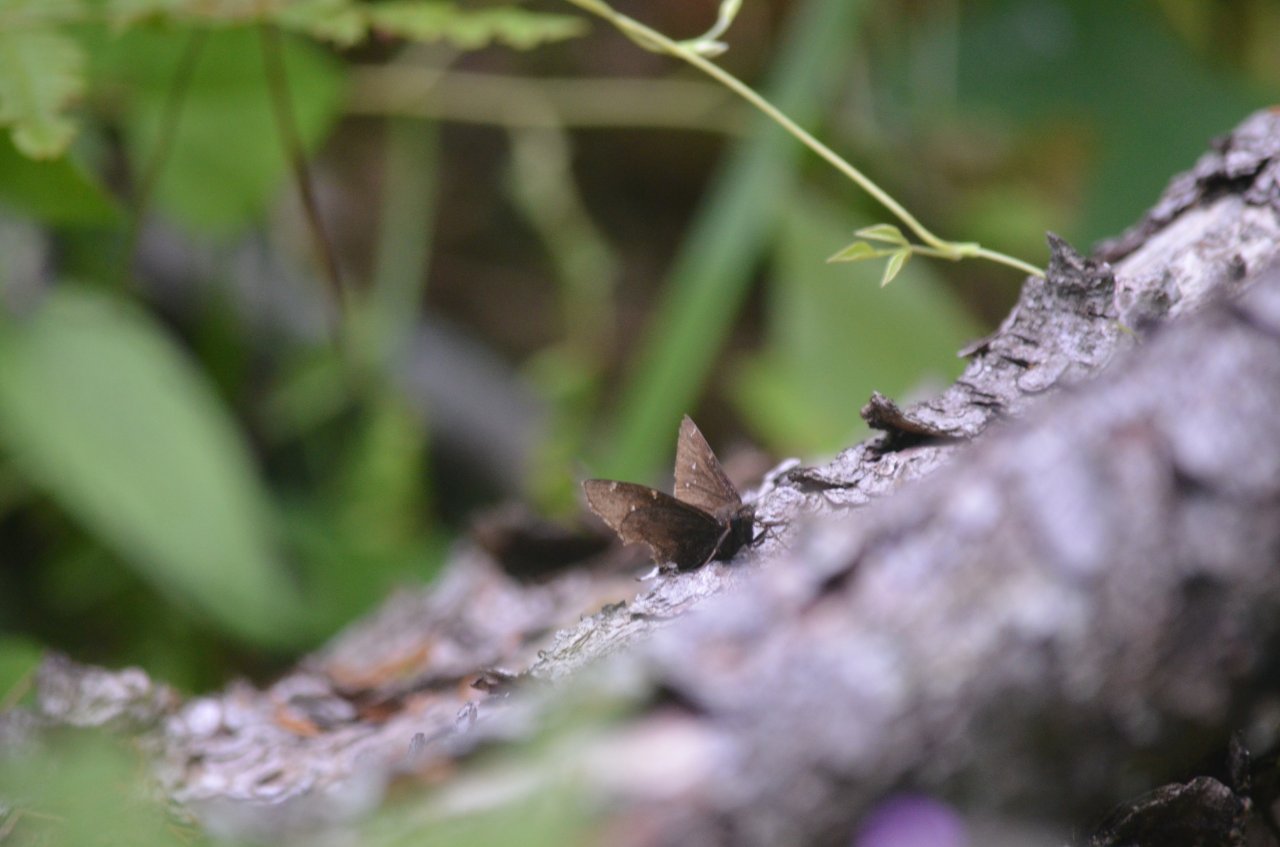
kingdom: Animalia
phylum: Arthropoda
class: Insecta
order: Lepidoptera
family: Hesperiidae
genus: Autochton
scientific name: Autochton
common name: Northern Cloudywing
